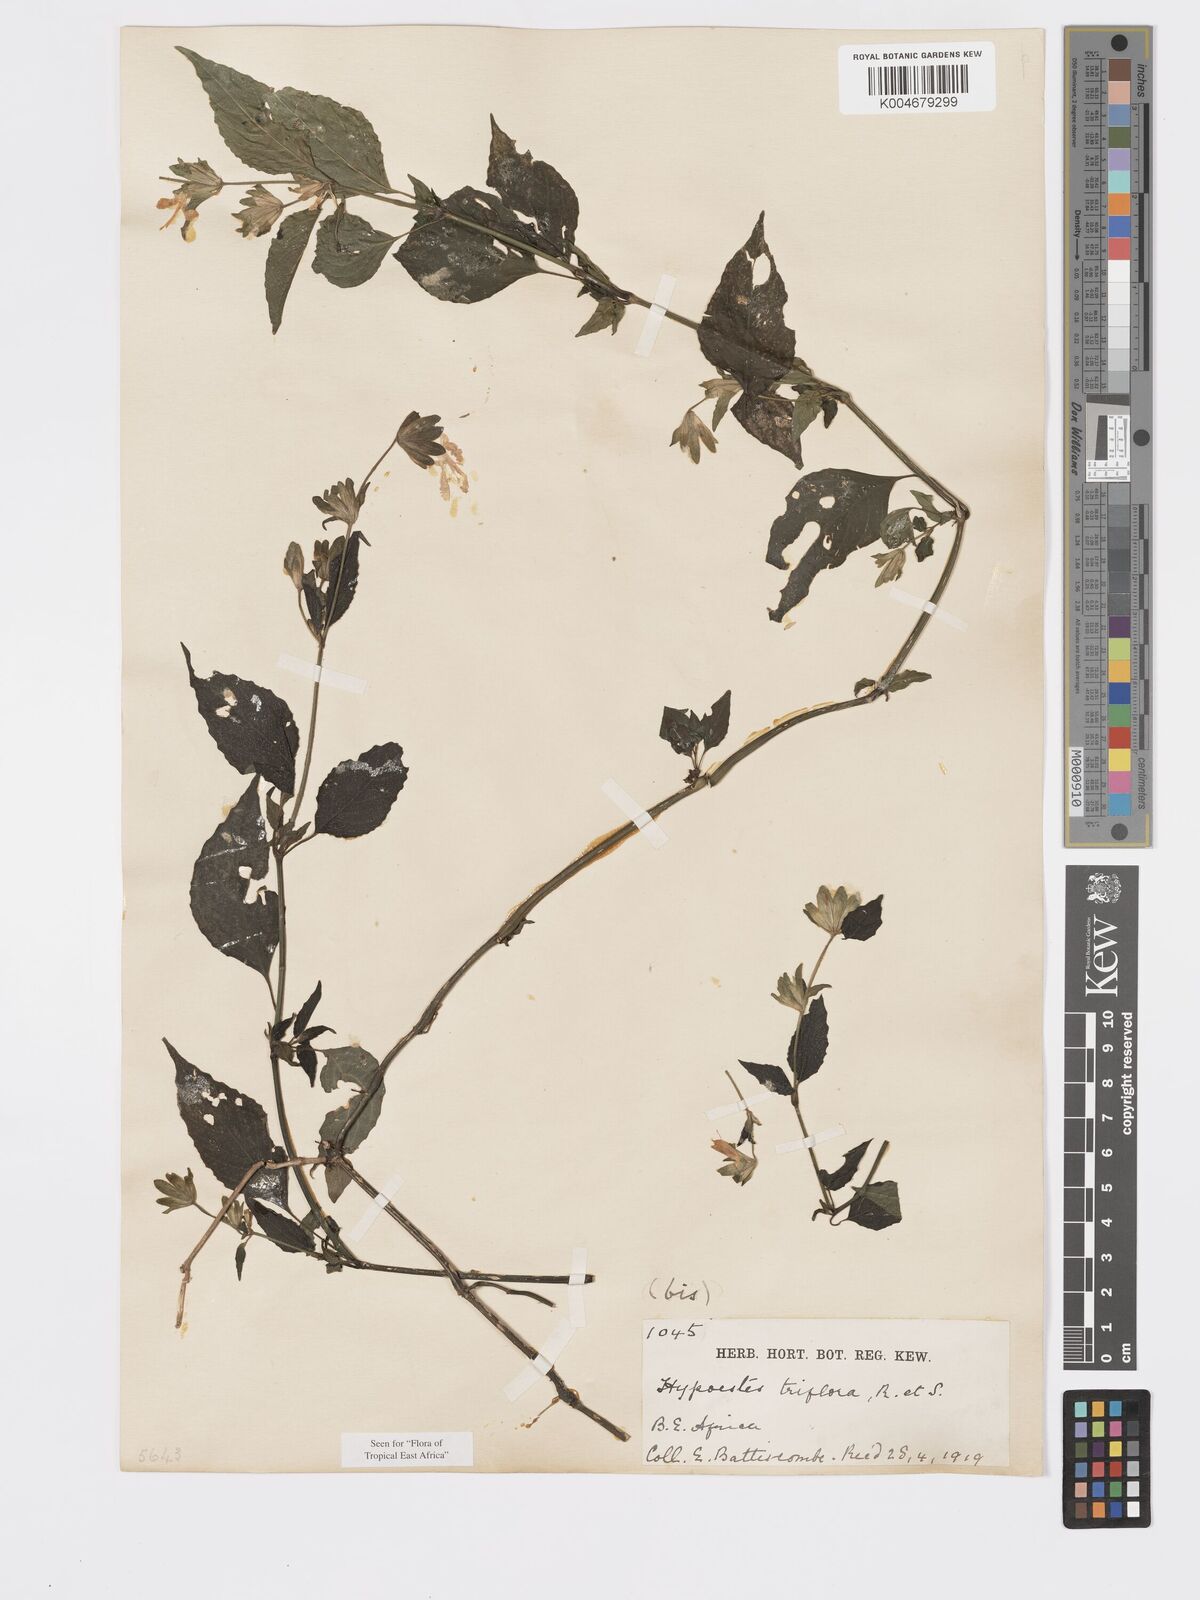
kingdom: Plantae
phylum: Tracheophyta
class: Magnoliopsida
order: Lamiales
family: Acanthaceae
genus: Hypoestes
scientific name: Hypoestes triflora
